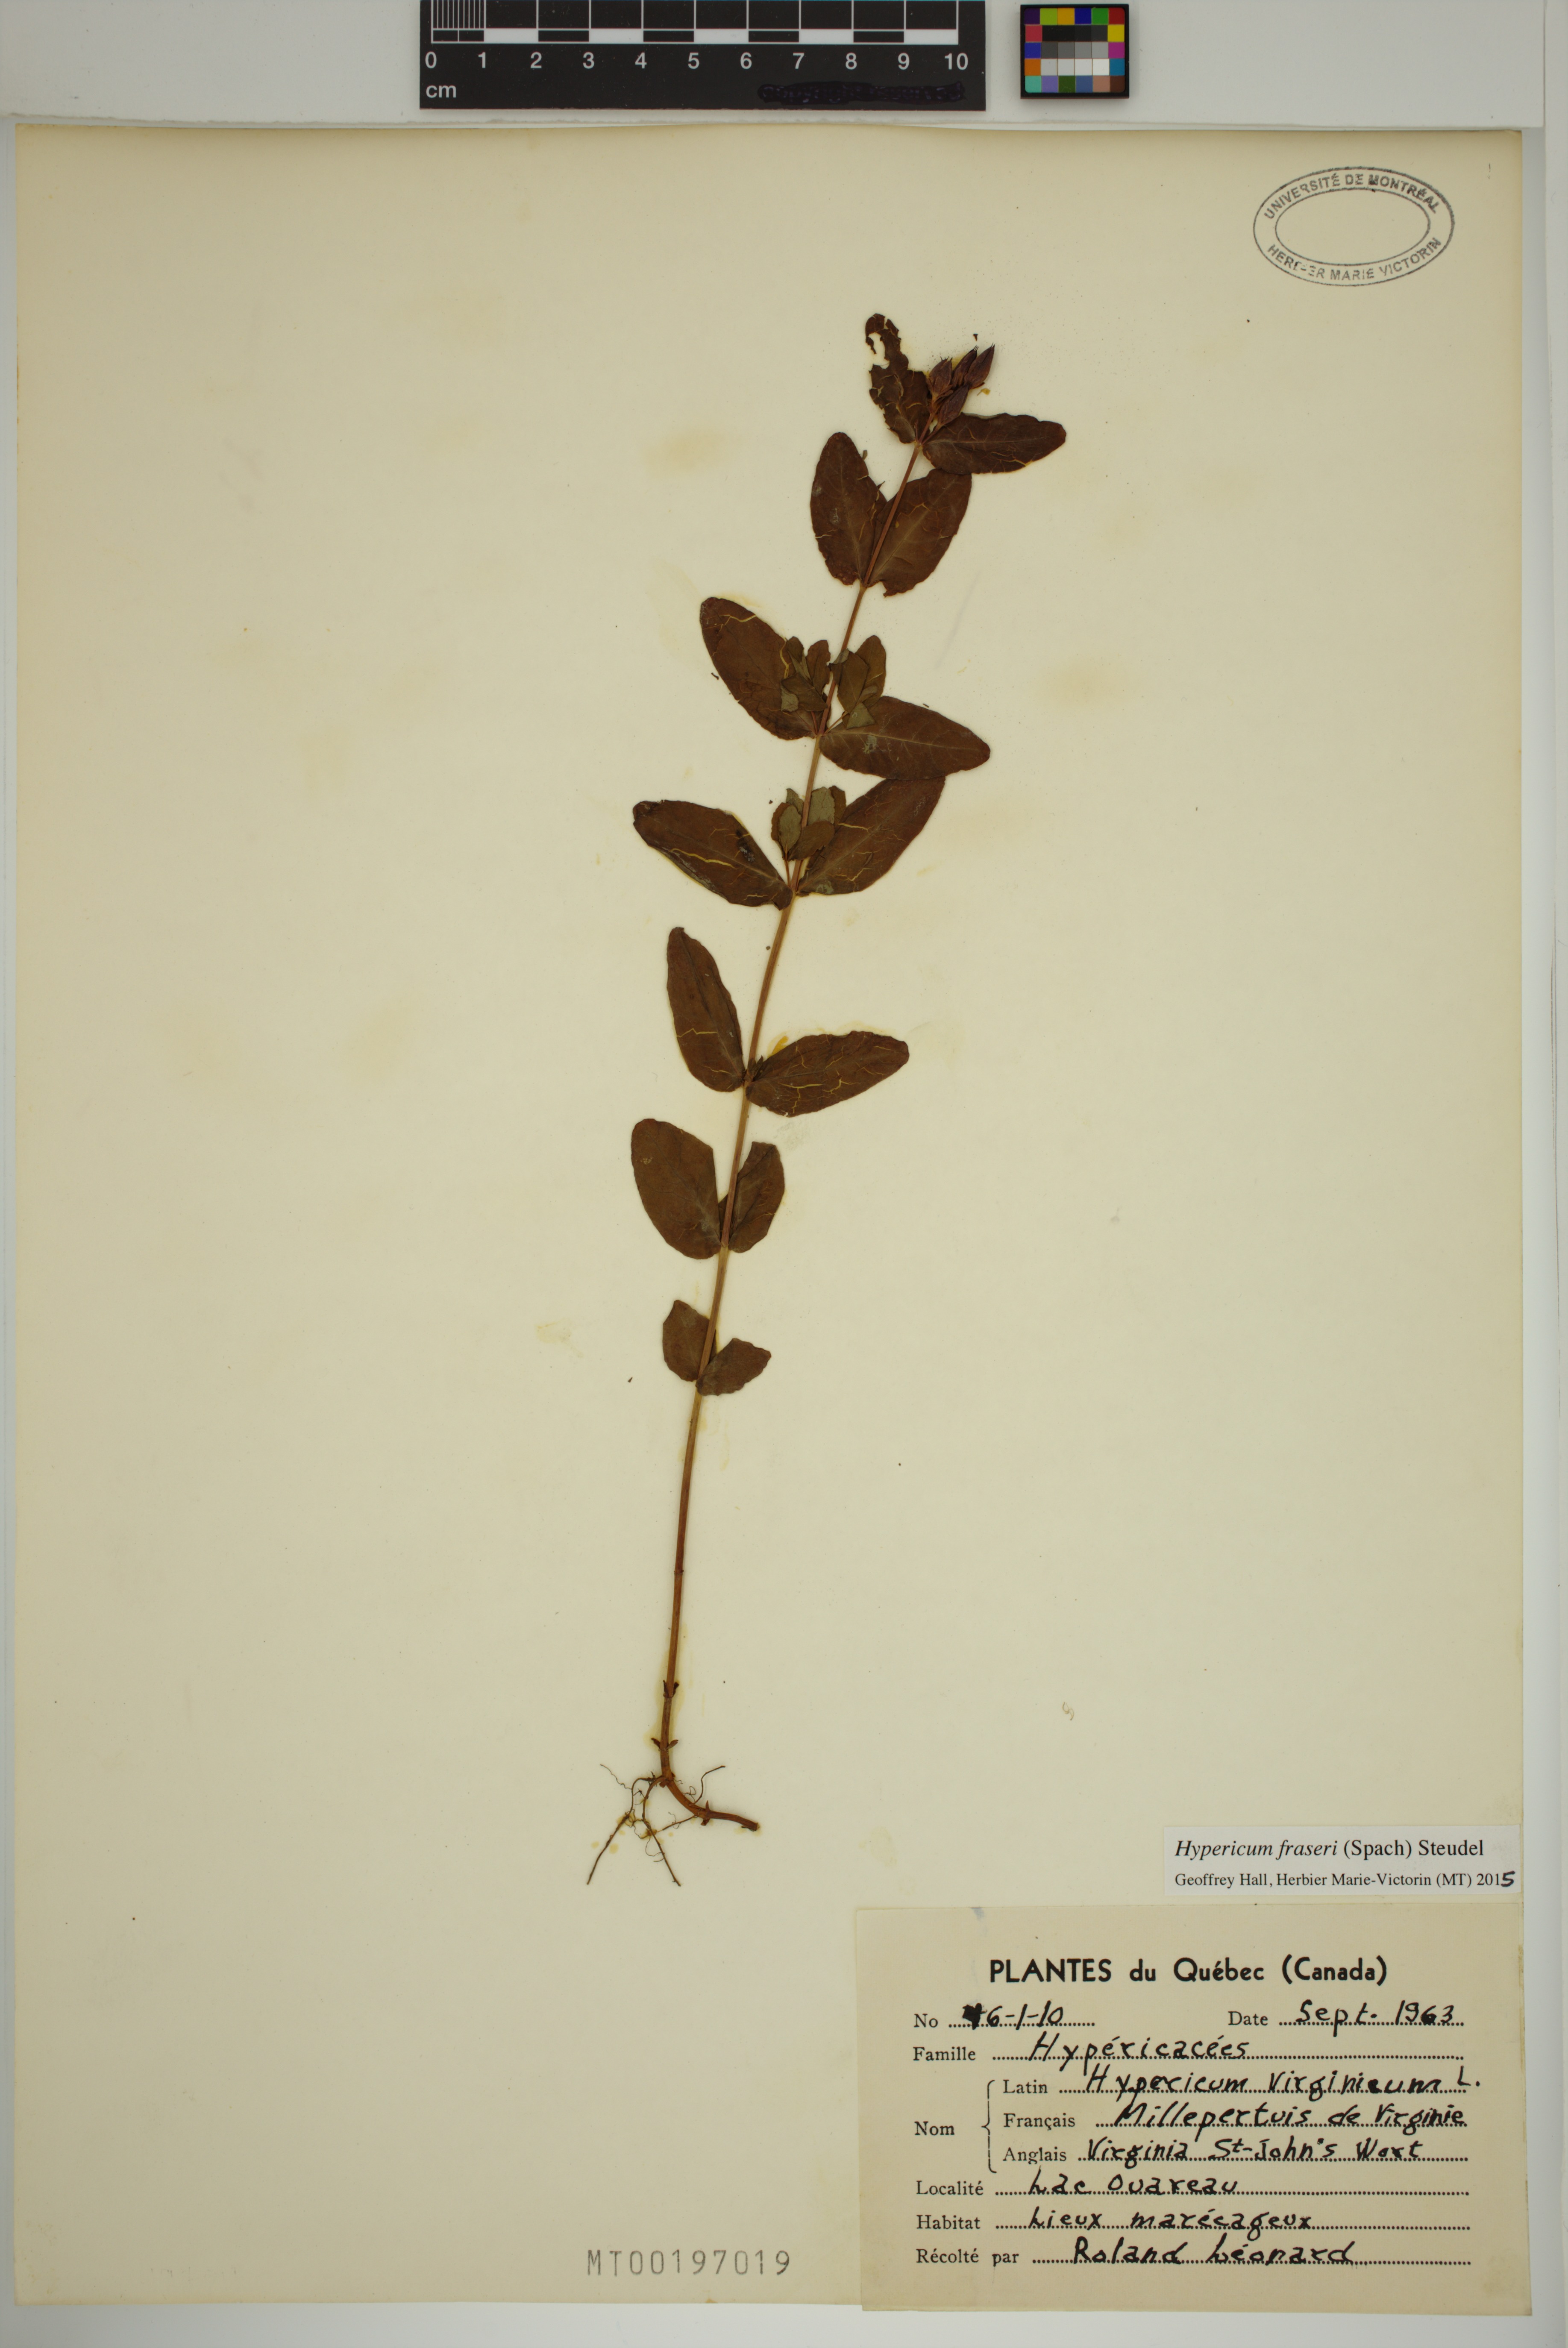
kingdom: Plantae
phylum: Tracheophyta
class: Magnoliopsida
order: Malpighiales
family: Hypericaceae
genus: Triadenum
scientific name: Triadenum fraseri
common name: Fraser's marsh st. johnswort
